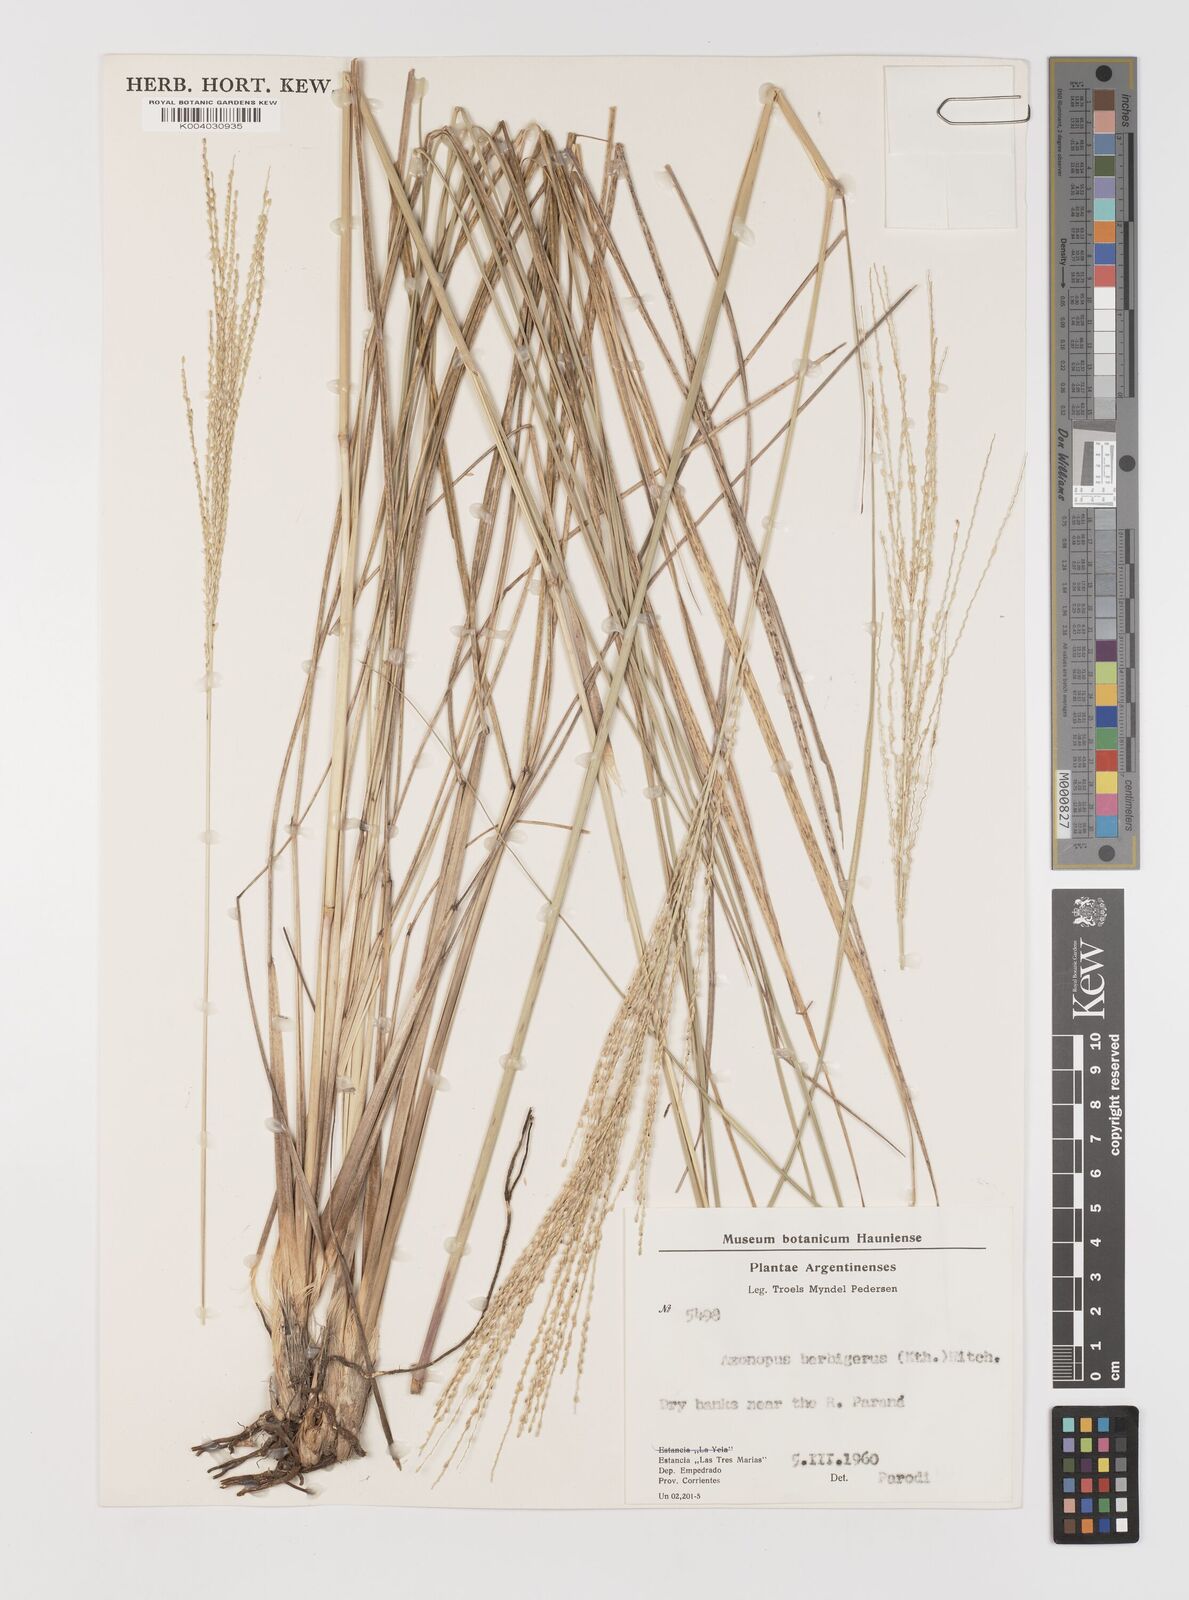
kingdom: Plantae
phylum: Tracheophyta
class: Liliopsida
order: Poales
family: Poaceae
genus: Axonopus
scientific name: Axonopus siccus
